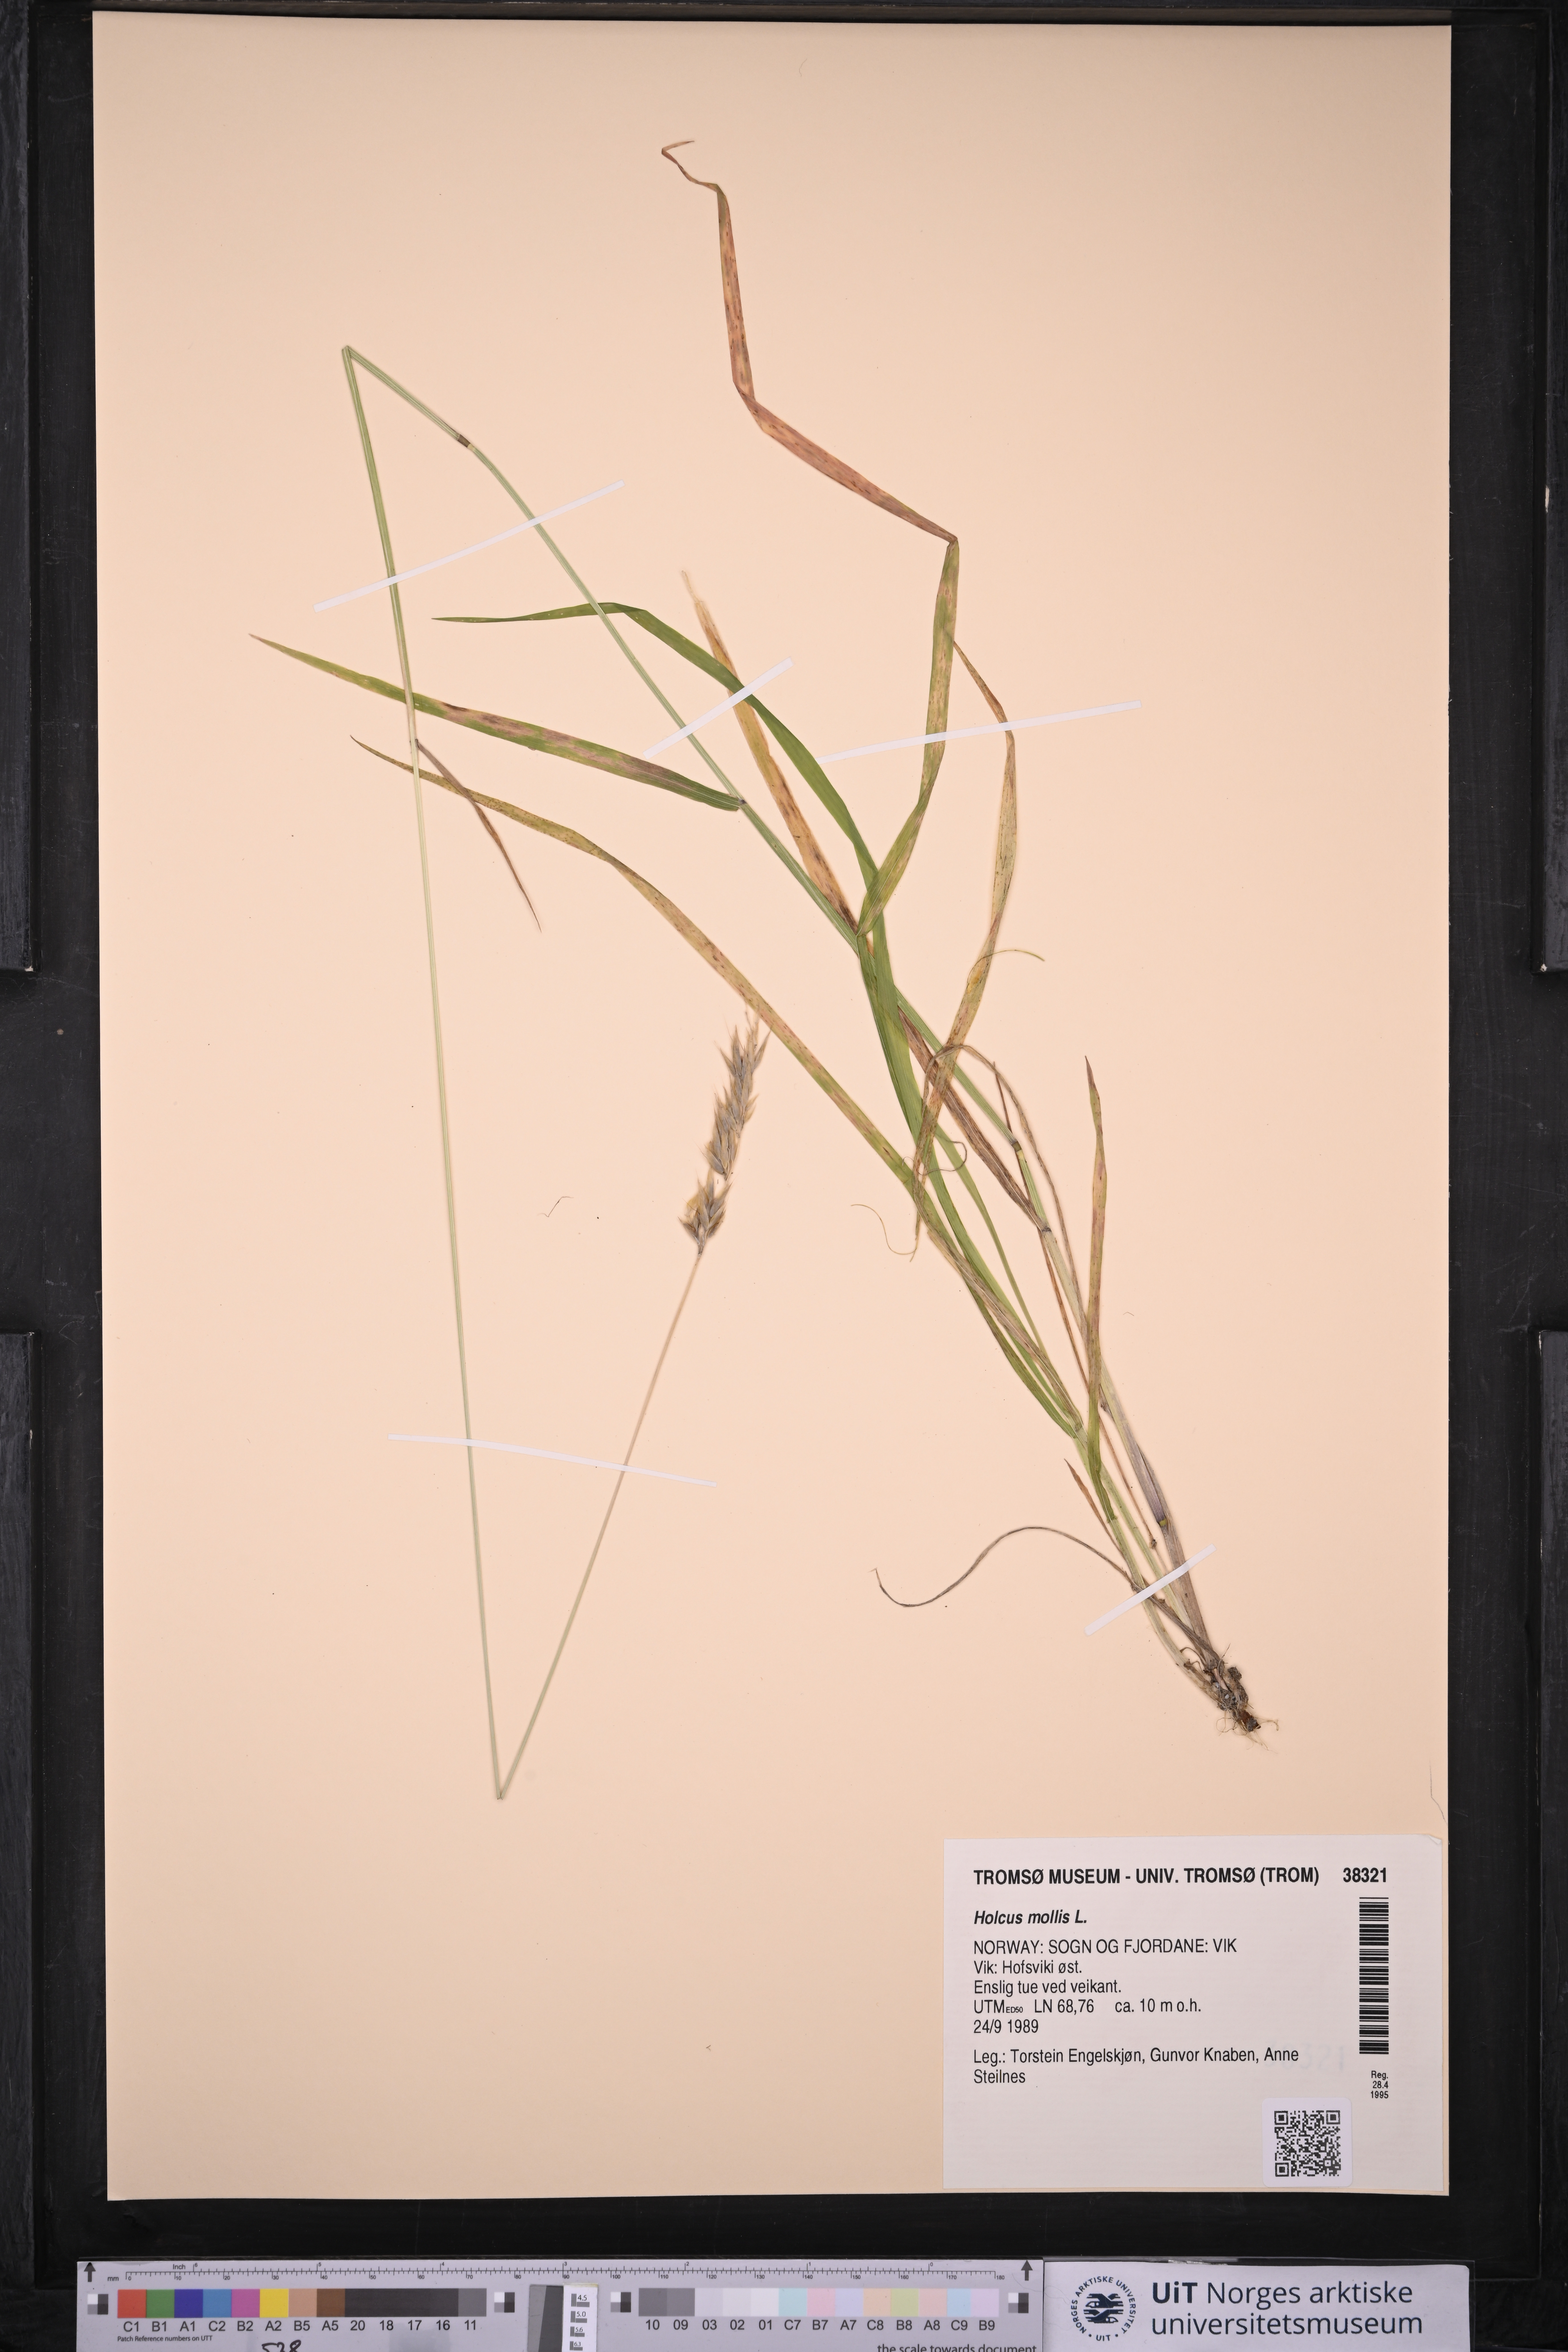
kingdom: Plantae
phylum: Tracheophyta
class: Liliopsida
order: Poales
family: Poaceae
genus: Holcus
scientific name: Holcus mollis
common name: Creeping velvetgrass
